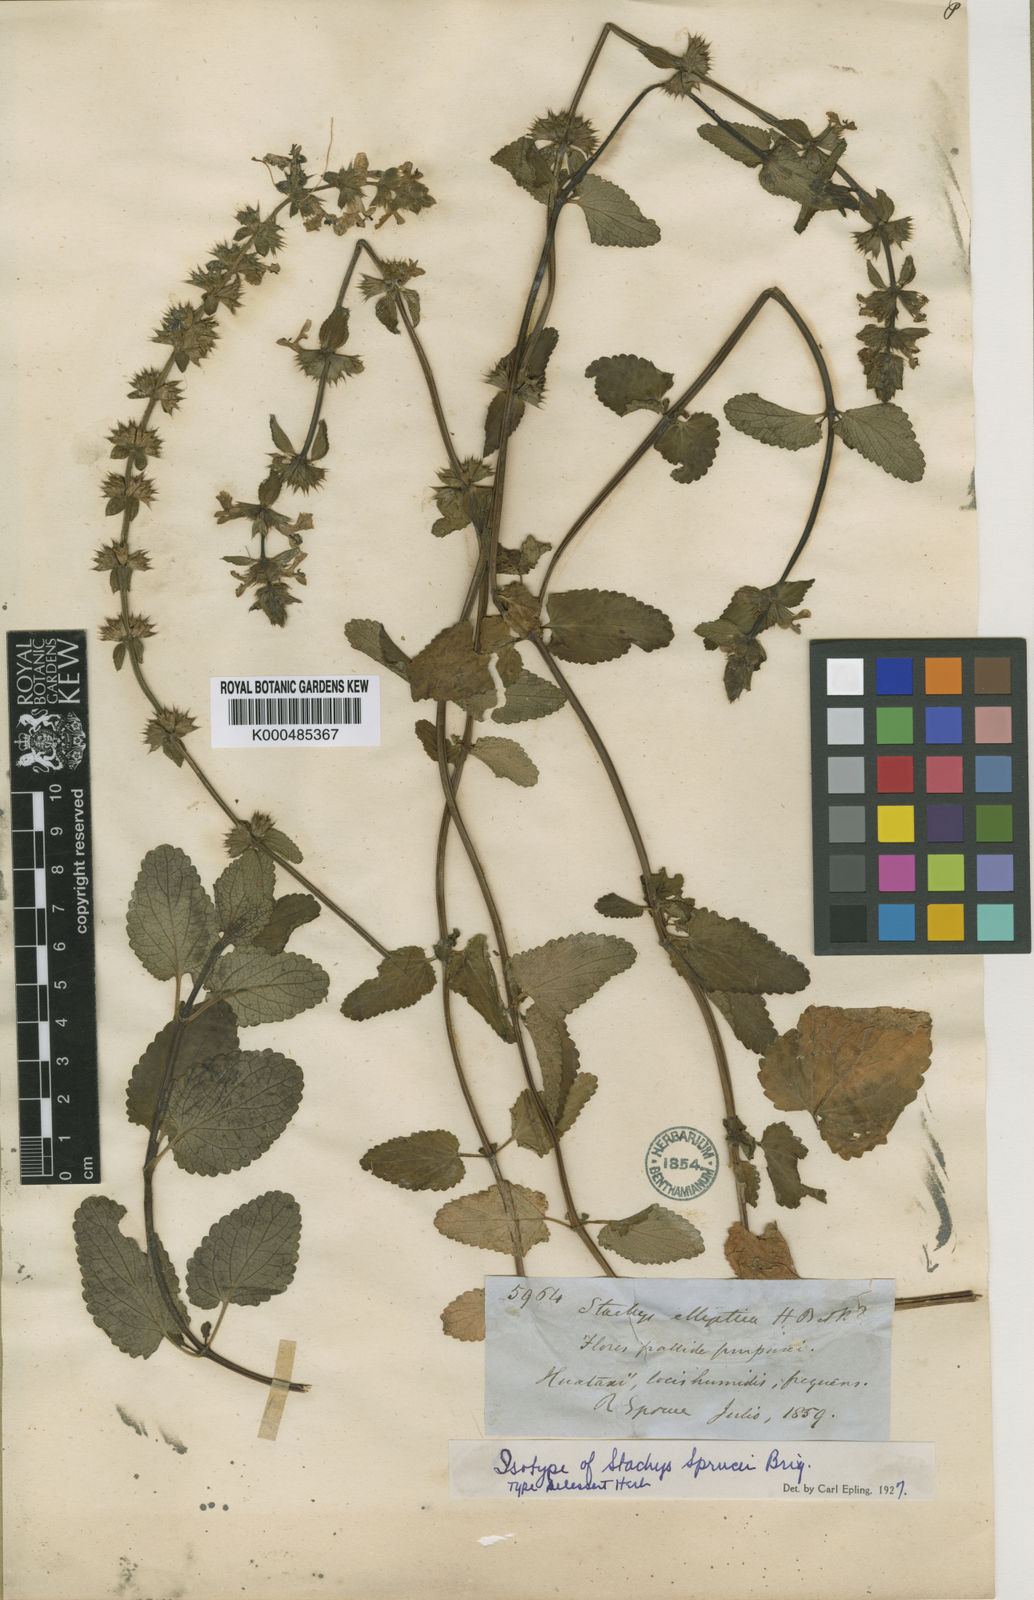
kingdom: Plantae
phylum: Tracheophyta
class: Magnoliopsida
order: Lamiales
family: Lamiaceae
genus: Stachys
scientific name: Stachys sprucei
